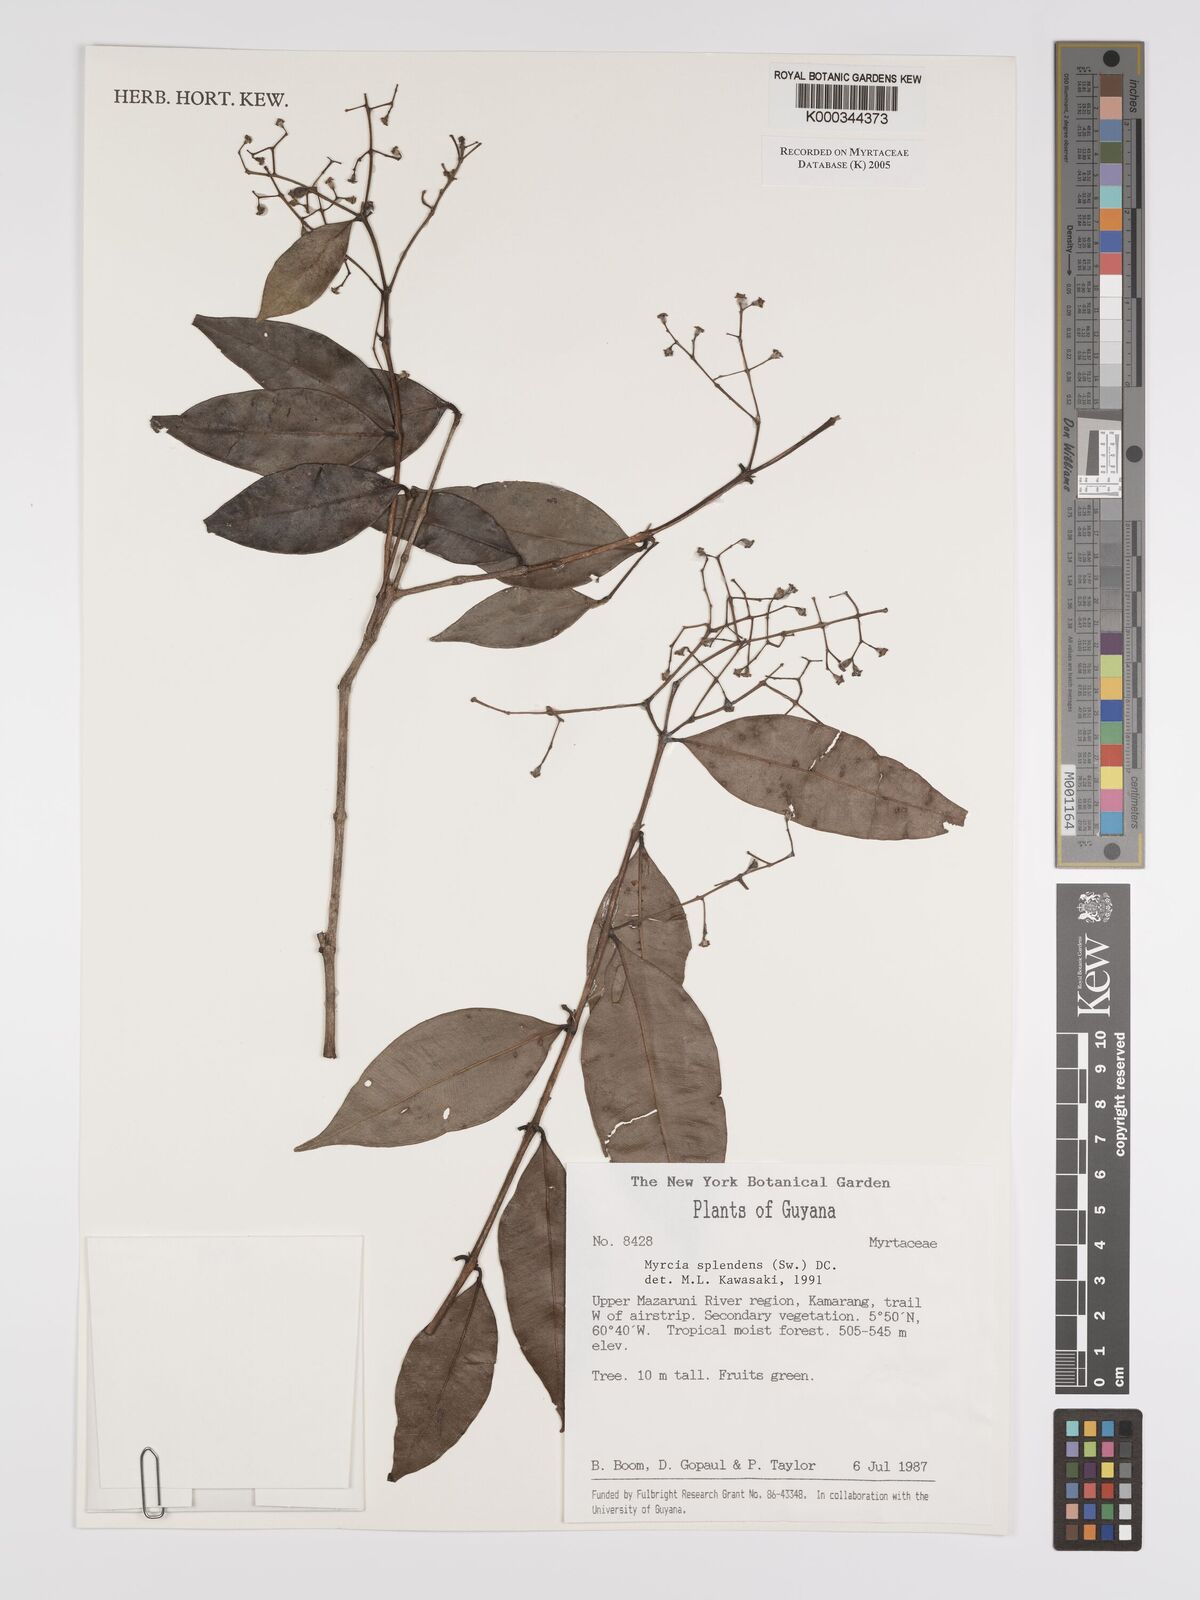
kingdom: Plantae
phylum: Tracheophyta
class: Magnoliopsida
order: Myrtales
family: Myrtaceae
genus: Myrcia
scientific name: Myrcia splendens
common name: Surinam cherry
